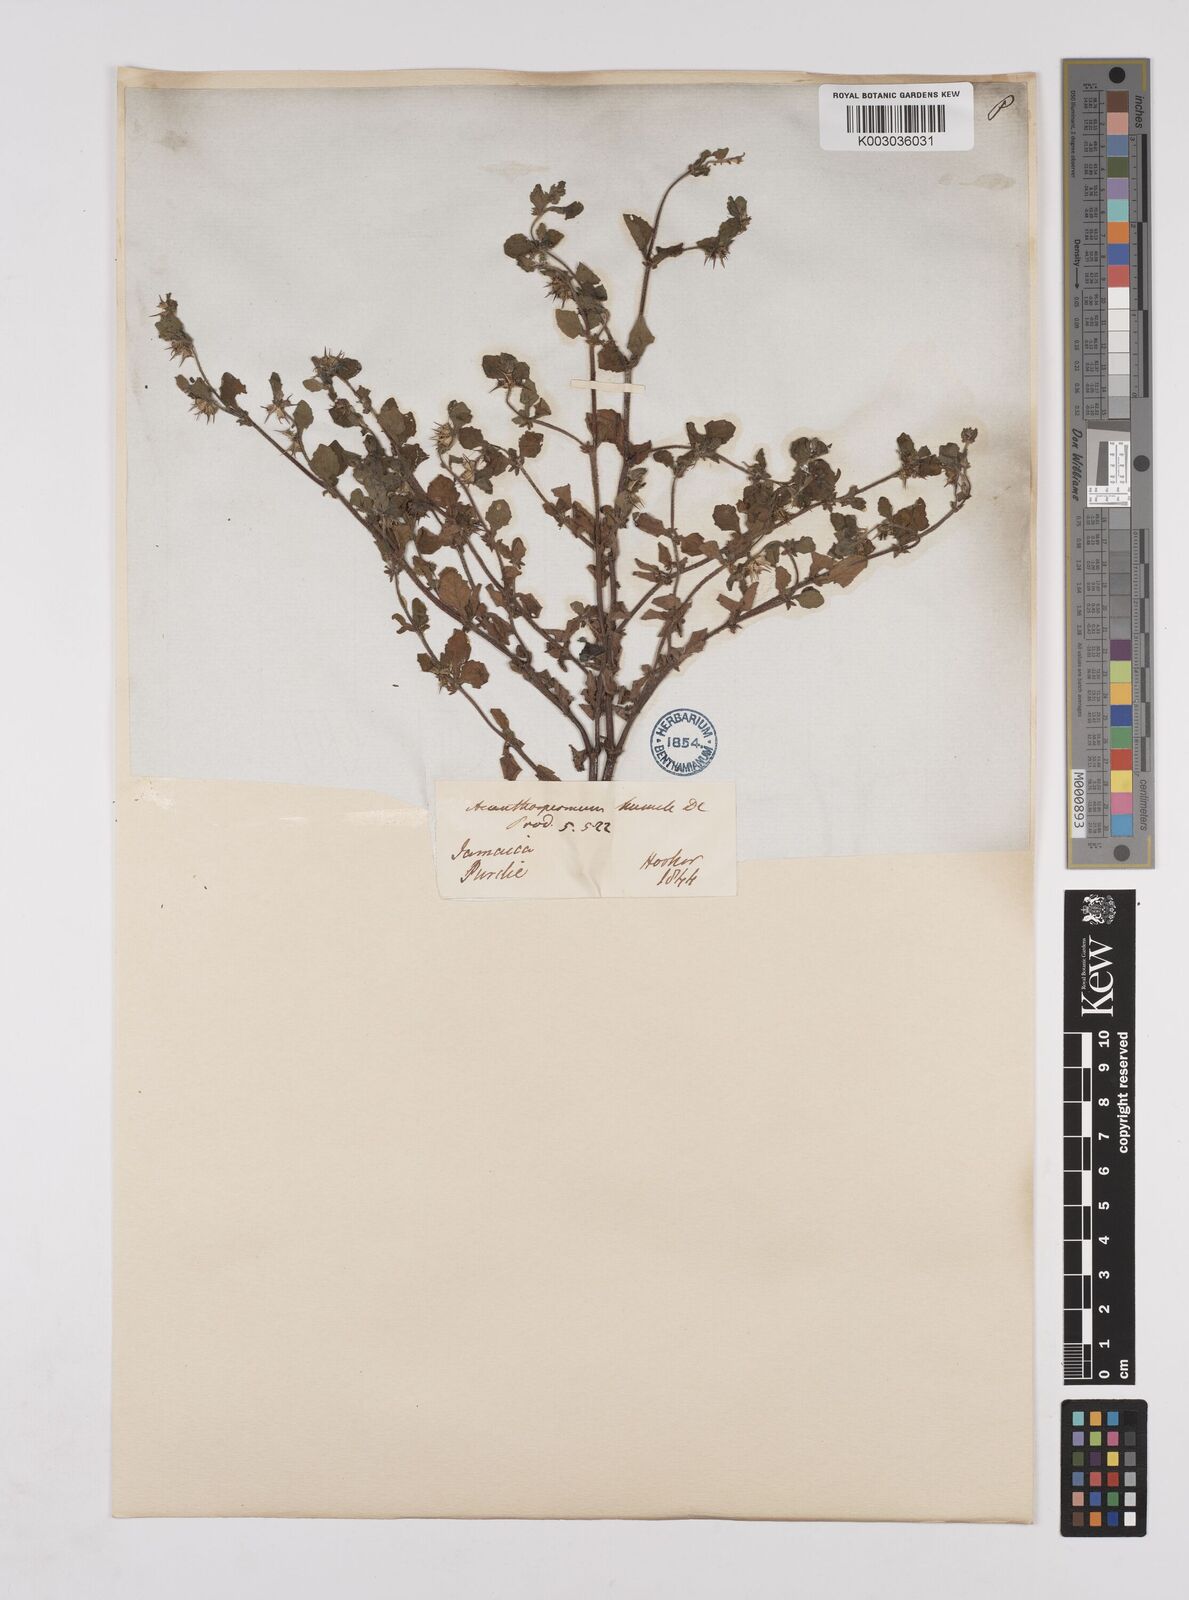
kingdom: Plantae
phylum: Tracheophyta
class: Magnoliopsida
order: Asterales
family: Asteraceae
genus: Acanthospermum
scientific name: Acanthospermum humile
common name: Low starbur
